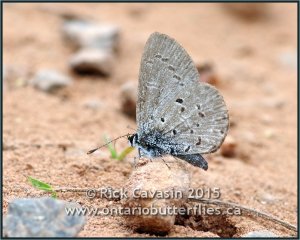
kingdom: Animalia
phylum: Arthropoda
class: Insecta
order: Lepidoptera
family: Lycaenidae
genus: Celastrina
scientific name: Celastrina ladon
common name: Spring Azure
